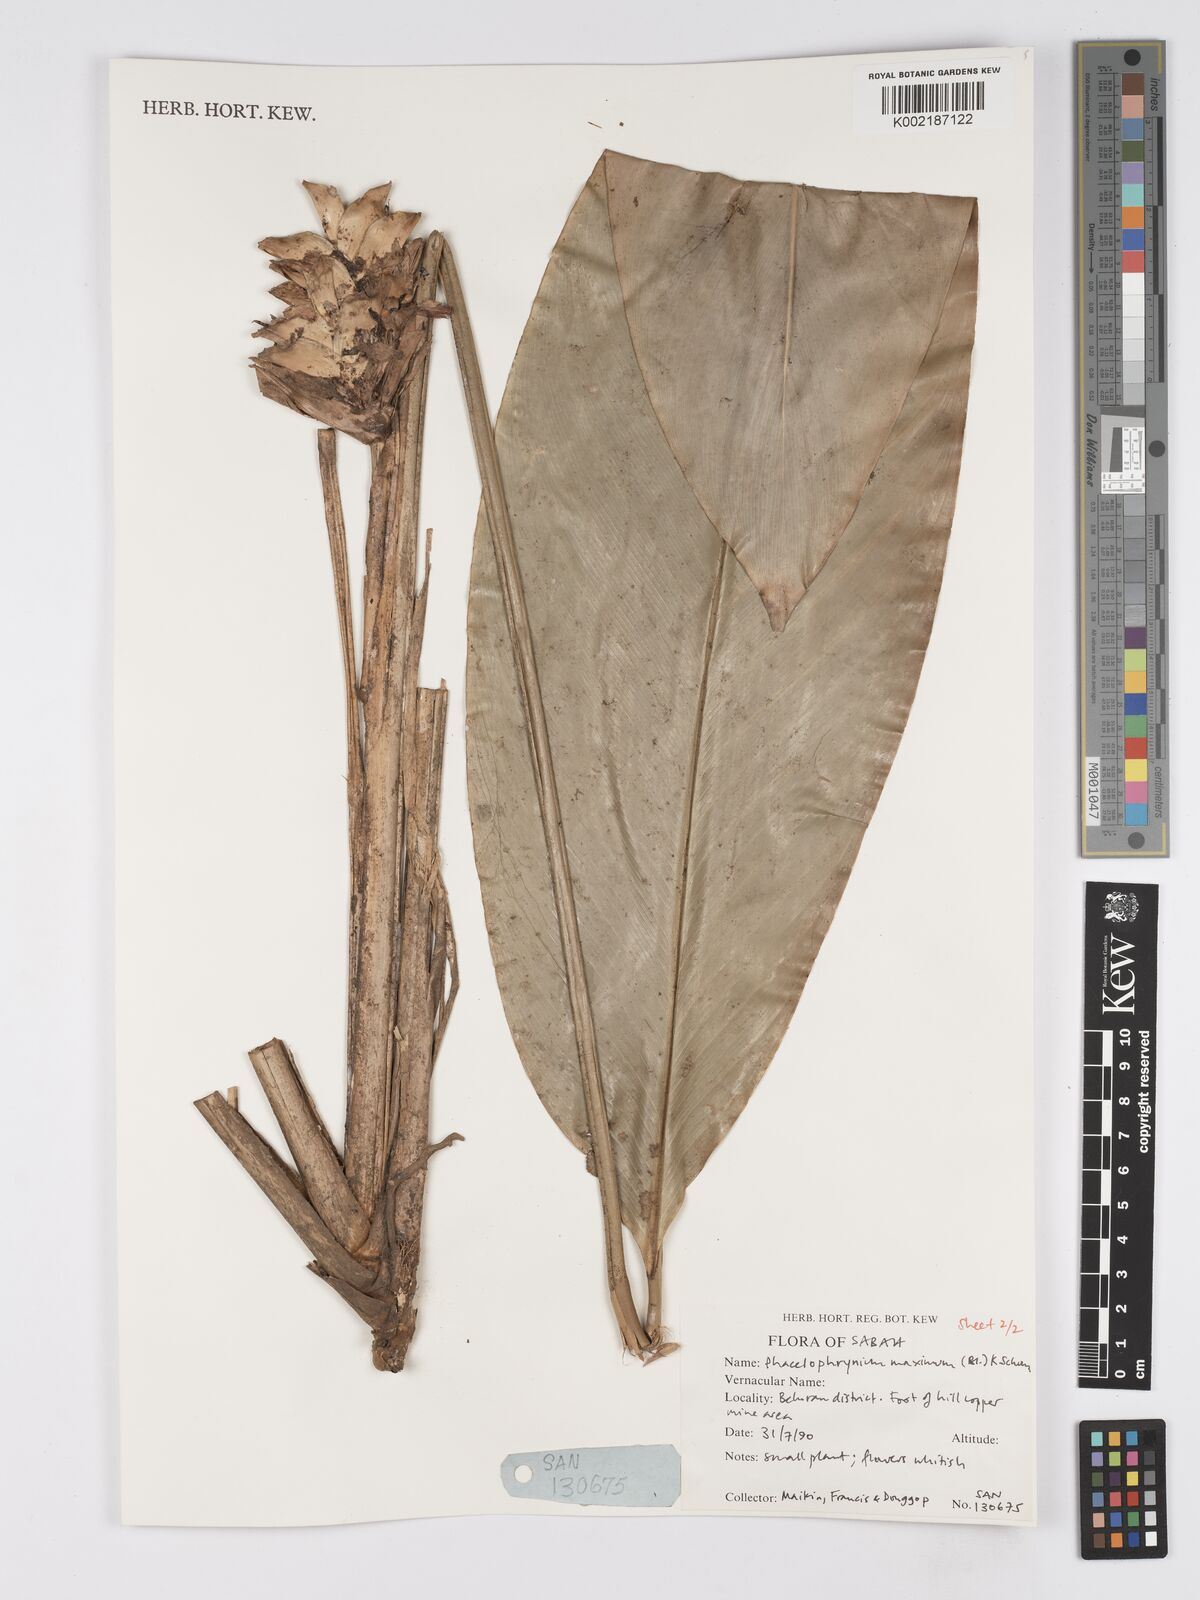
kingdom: Plantae
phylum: Tracheophyta
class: Liliopsida
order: Zingiberales
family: Marantaceae
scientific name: Marantaceae
